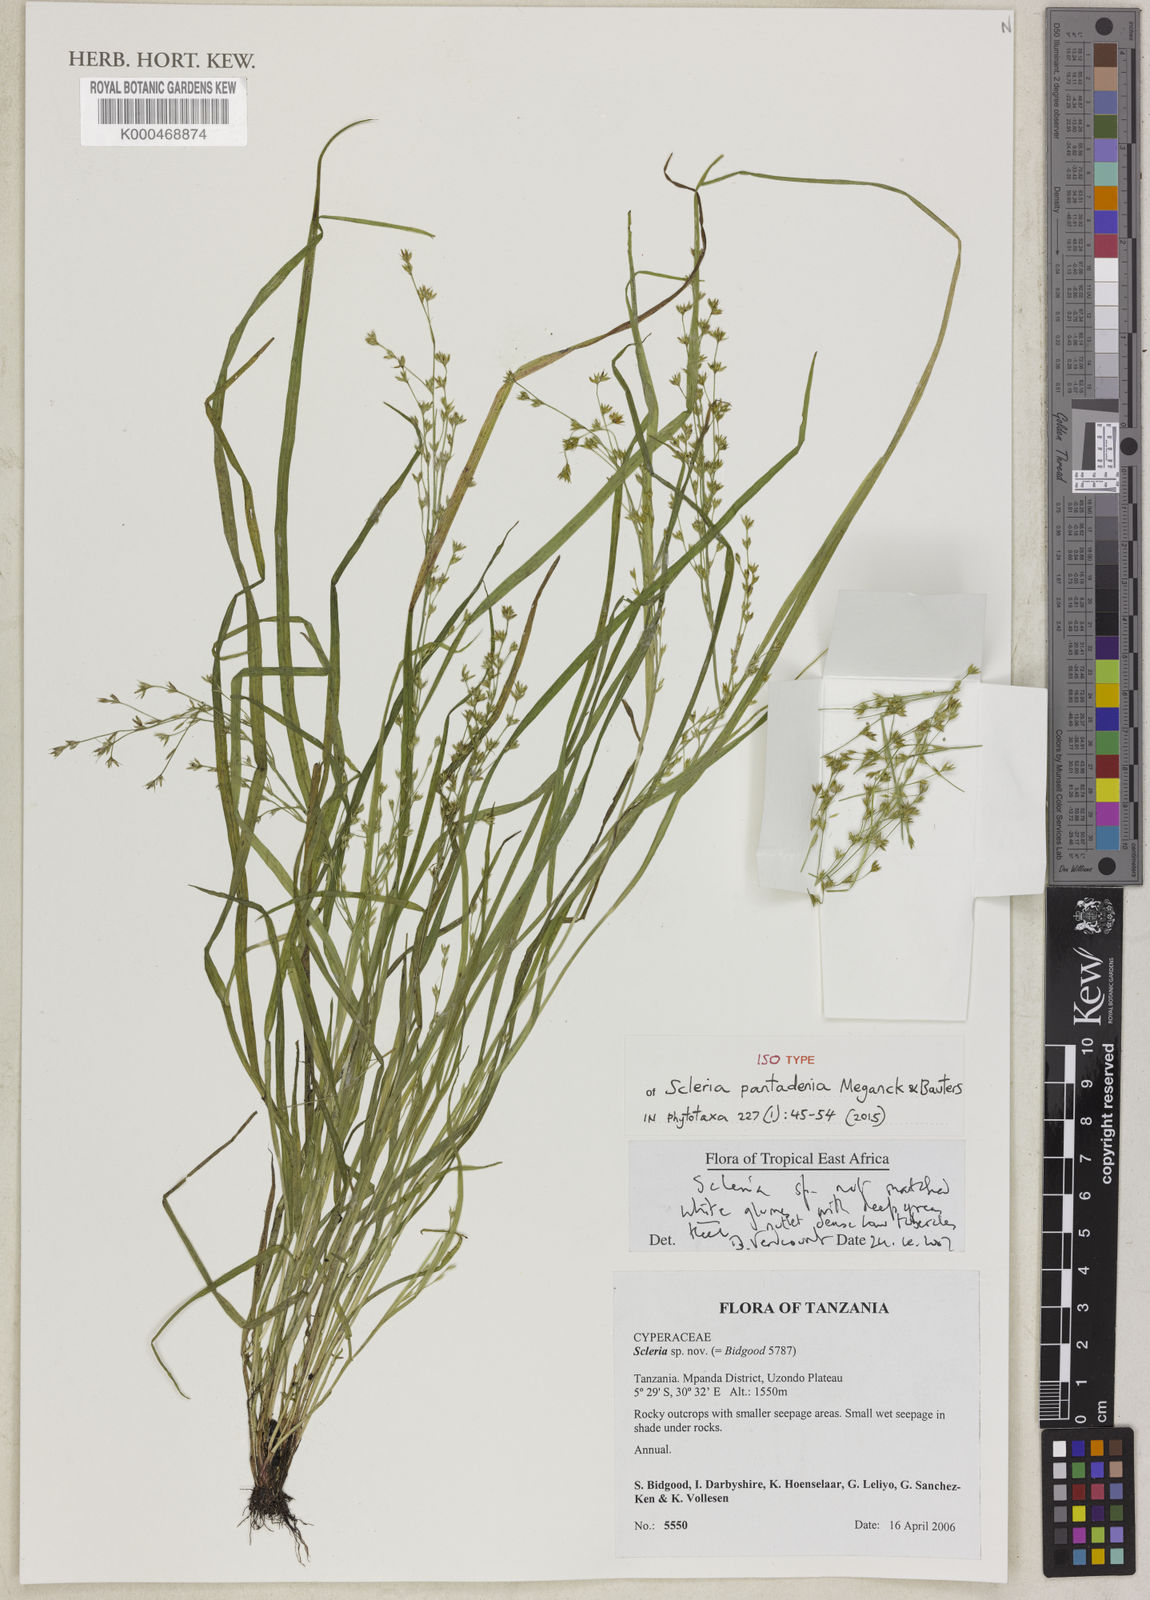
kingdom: Plantae
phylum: Tracheophyta
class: Liliopsida
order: Poales
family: Cyperaceae
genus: Scleria
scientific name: Scleria pantadenia
